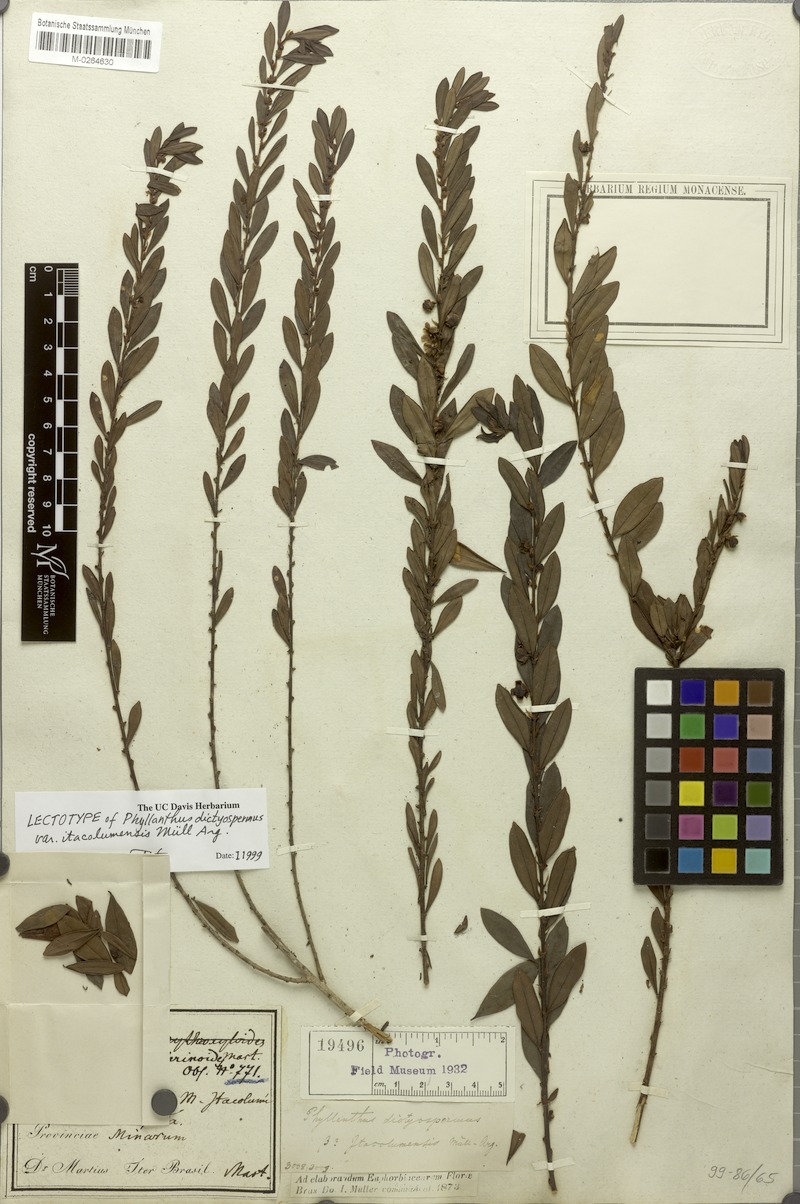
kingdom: Plantae
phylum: Tracheophyta
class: Magnoliopsida
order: Malpighiales
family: Phyllanthaceae
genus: Phyllanthus
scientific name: Phyllanthus dictyospermus
